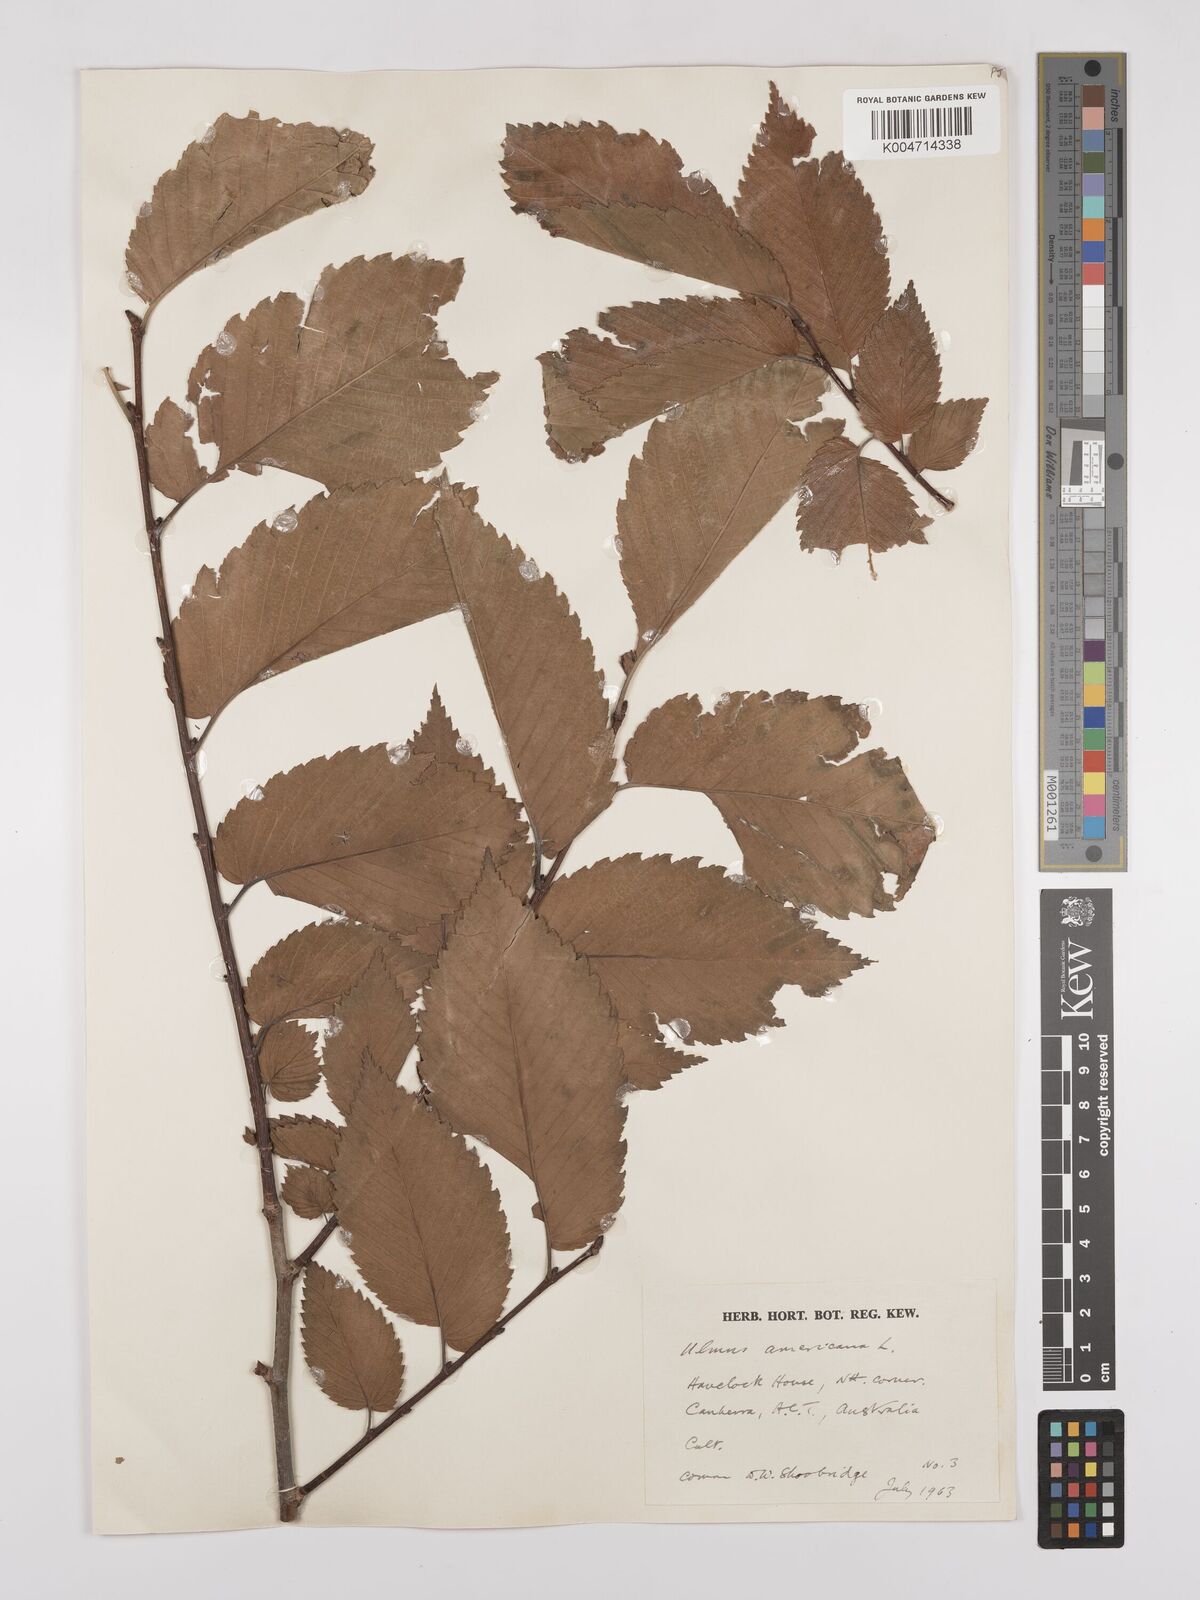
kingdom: Plantae
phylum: Tracheophyta
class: Magnoliopsida
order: Rosales
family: Ulmaceae
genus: Ulmus
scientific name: Ulmus americana
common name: American elm
